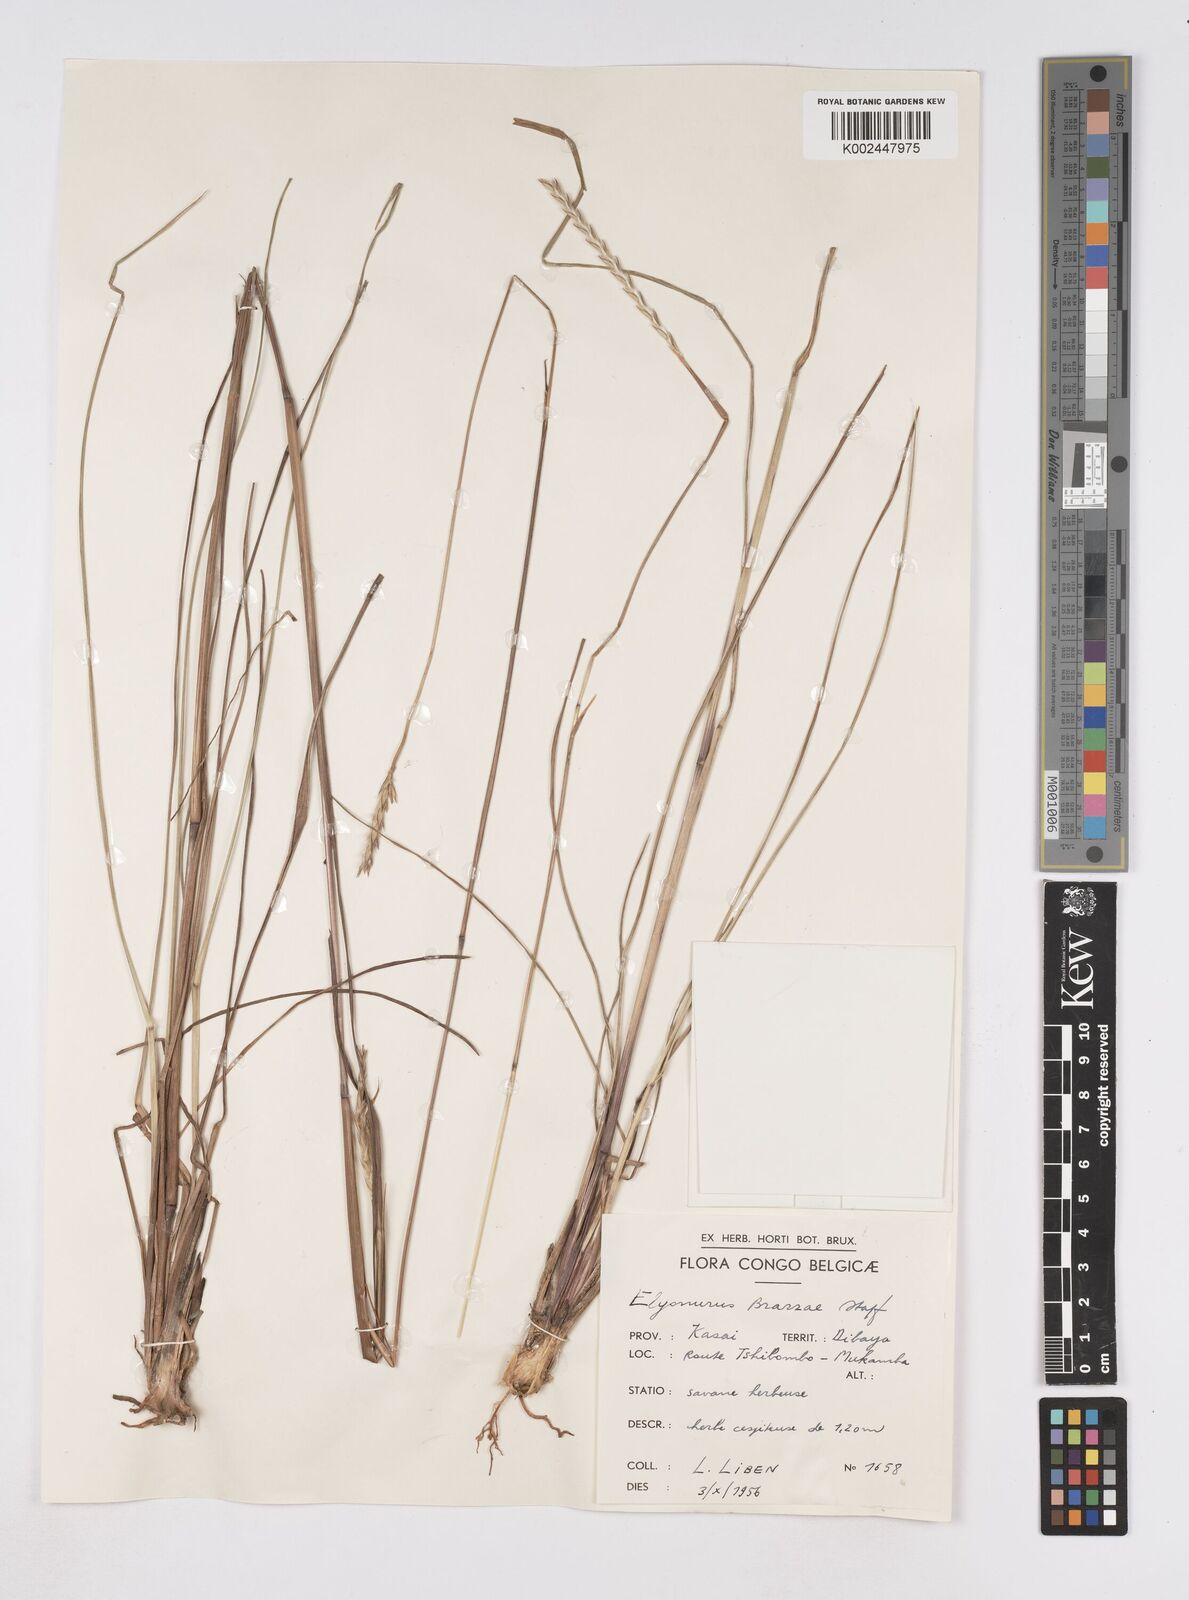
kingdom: Plantae
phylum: Tracheophyta
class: Liliopsida
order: Poales
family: Poaceae
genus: Elionurus
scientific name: Elionurus platypus
